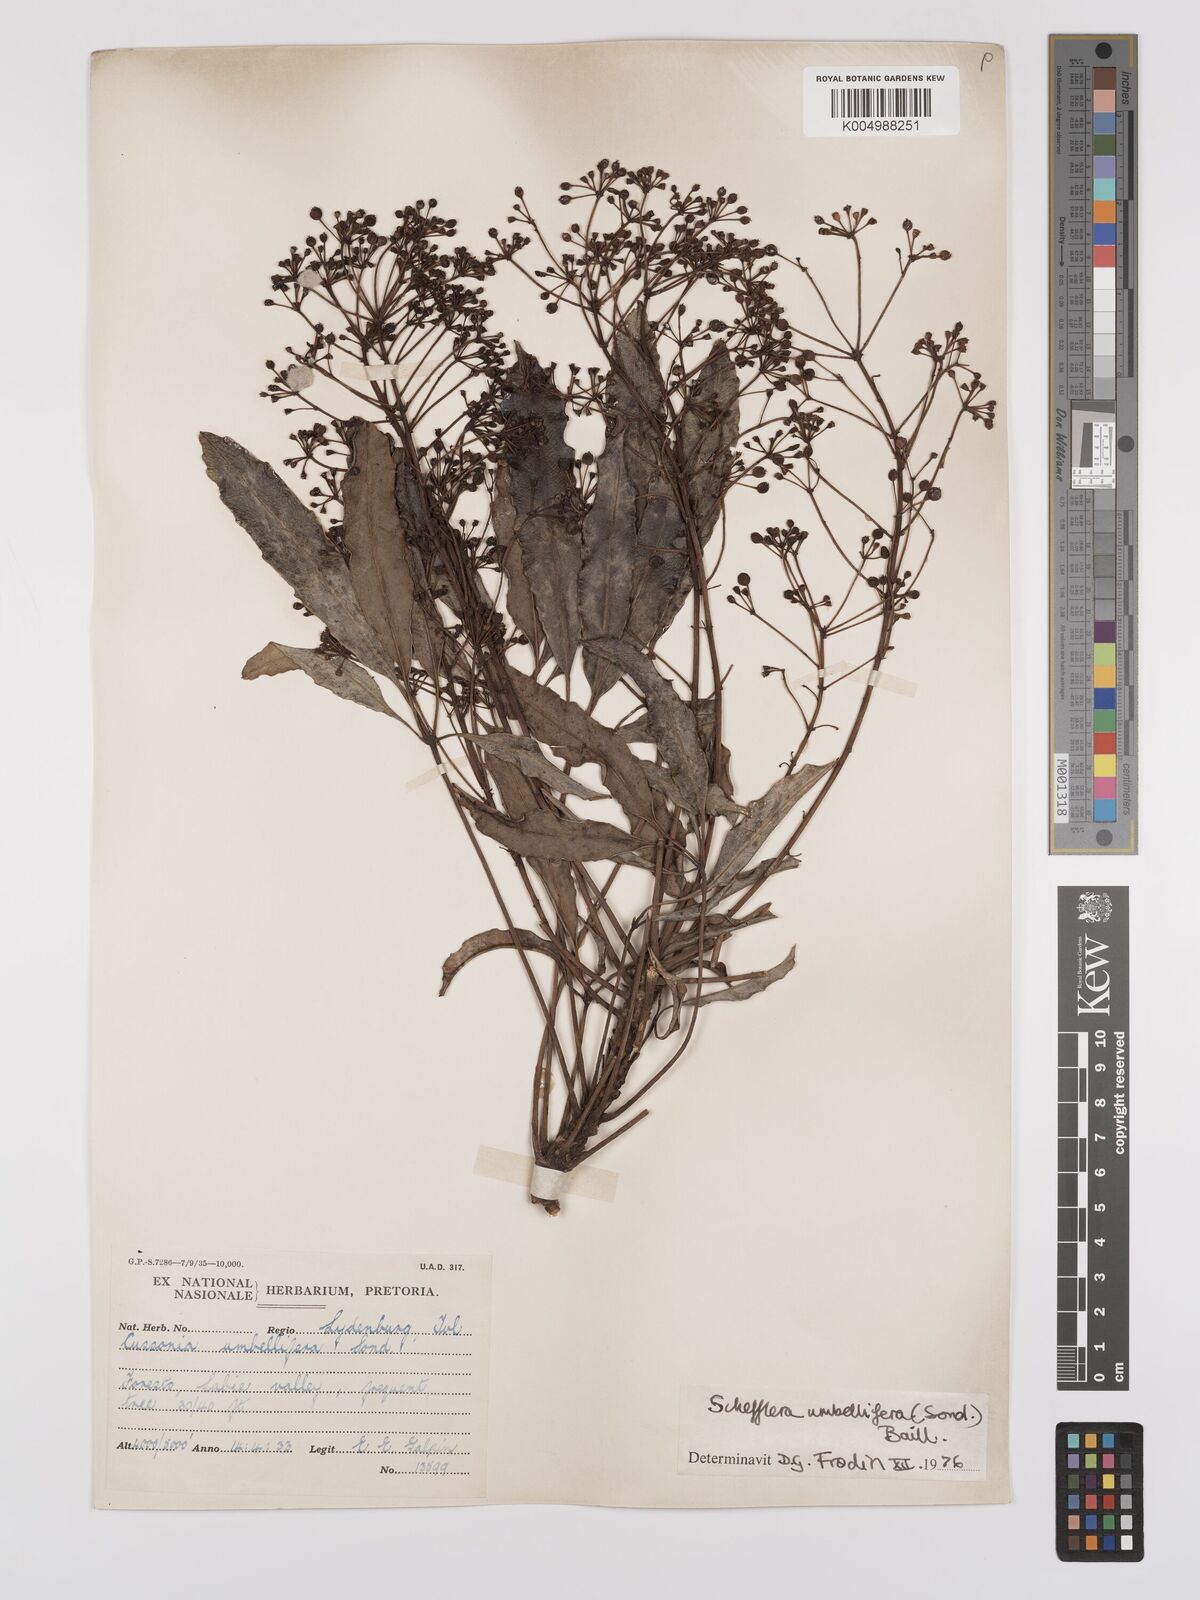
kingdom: Plantae
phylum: Tracheophyta
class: Magnoliopsida
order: Apiales
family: Araliaceae
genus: Neocussonia
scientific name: Neocussonia umbellifera
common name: False cabbage tree
